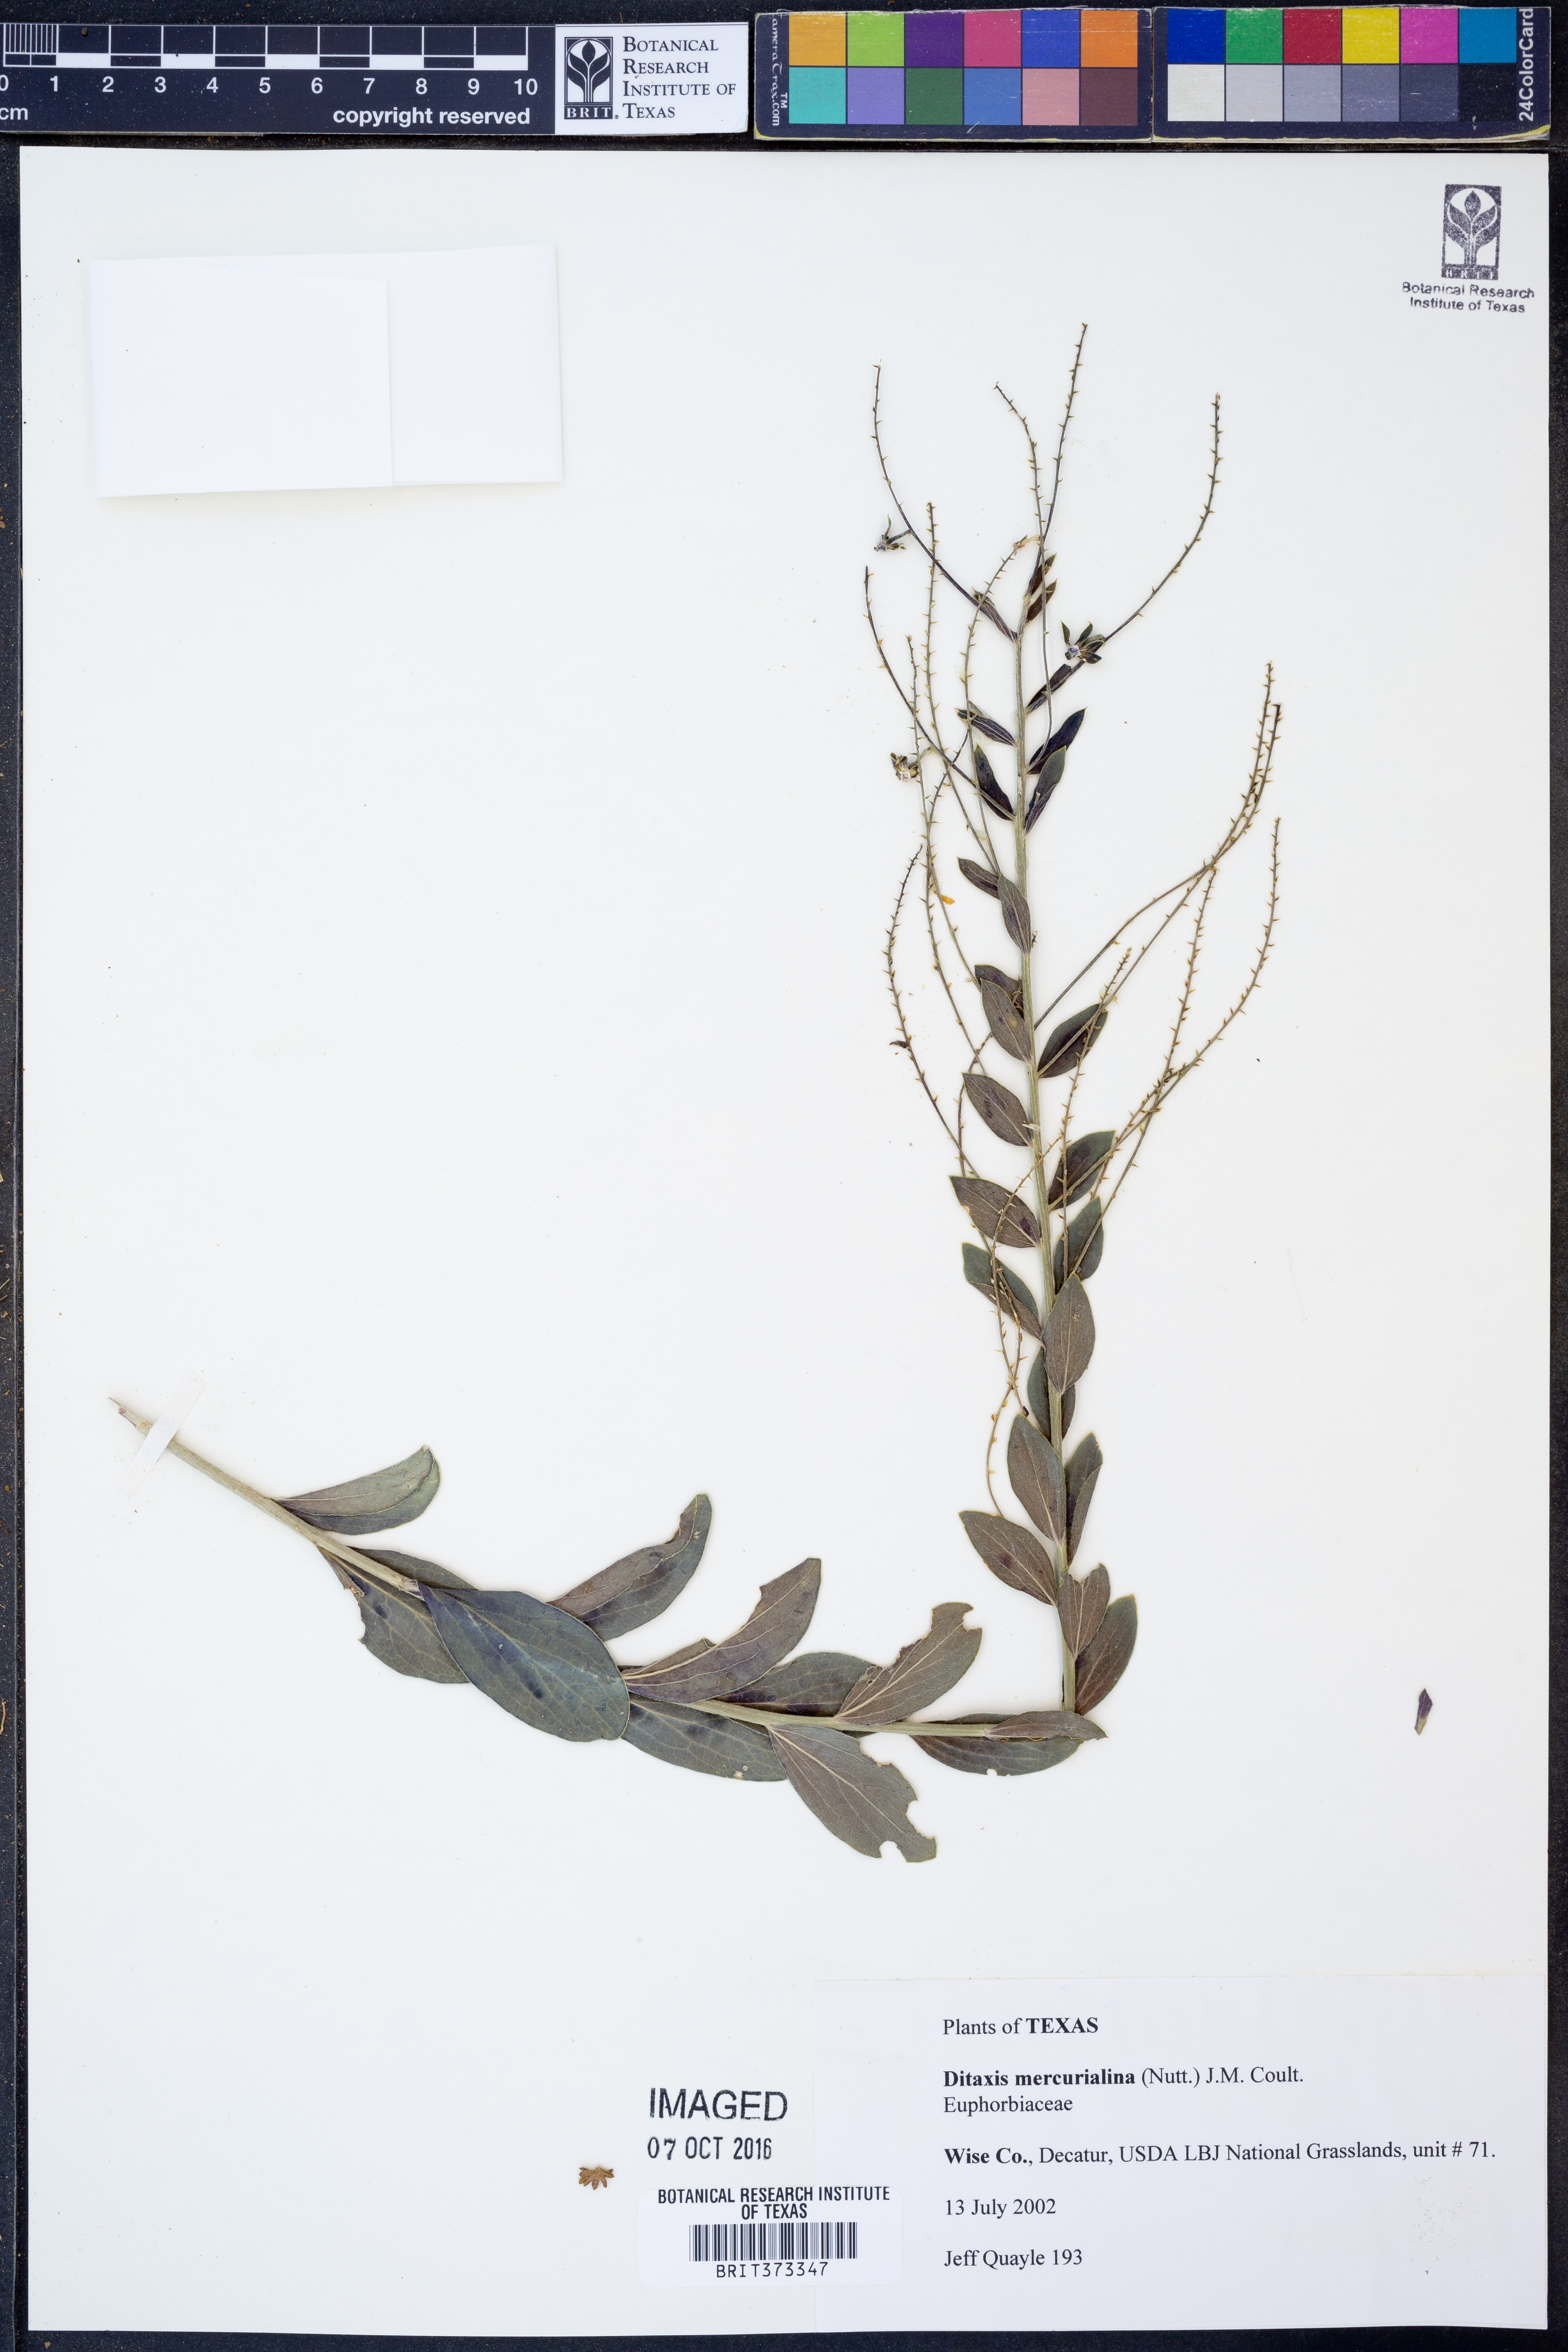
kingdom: Plantae
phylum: Tracheophyta
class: Magnoliopsida
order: Malpighiales
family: Euphorbiaceae
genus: Ditaxis
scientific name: Ditaxis mercurialina
